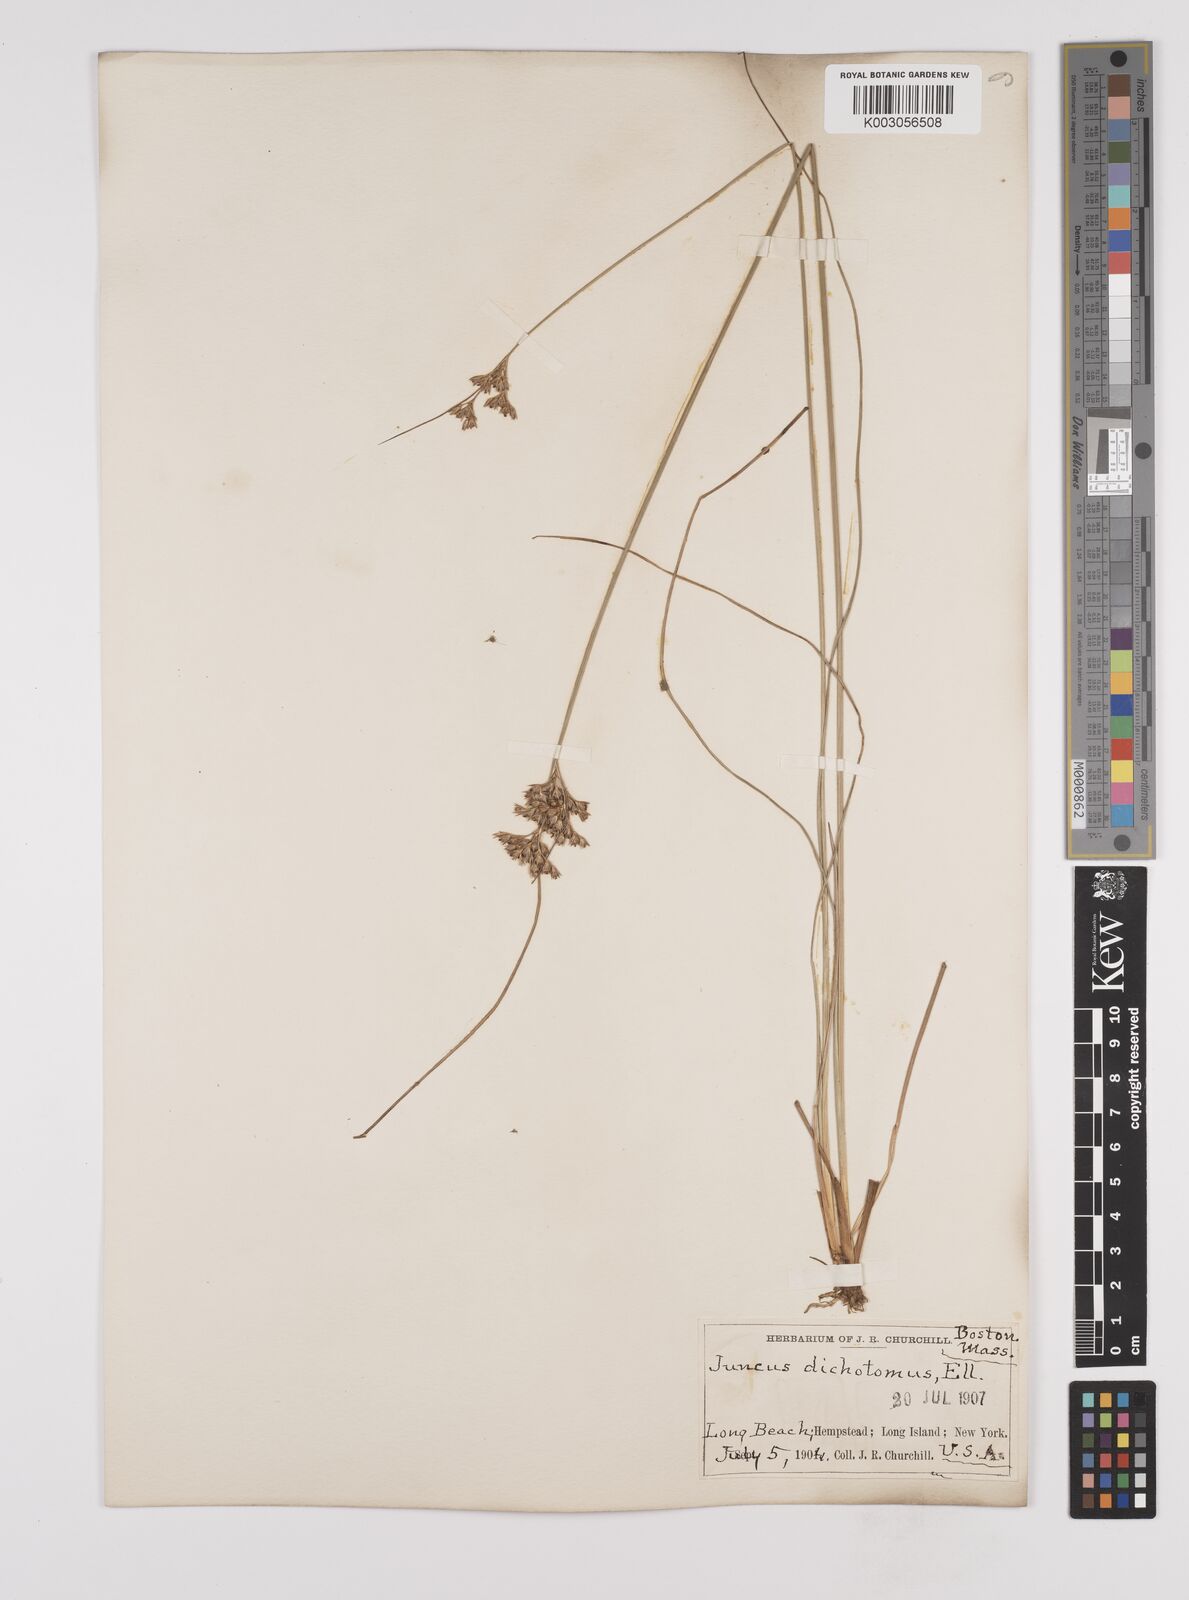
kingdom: Plantae
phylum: Tracheophyta
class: Liliopsida
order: Poales
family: Juncaceae
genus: Juncus
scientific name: Juncus dichotomus
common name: Forked rush
